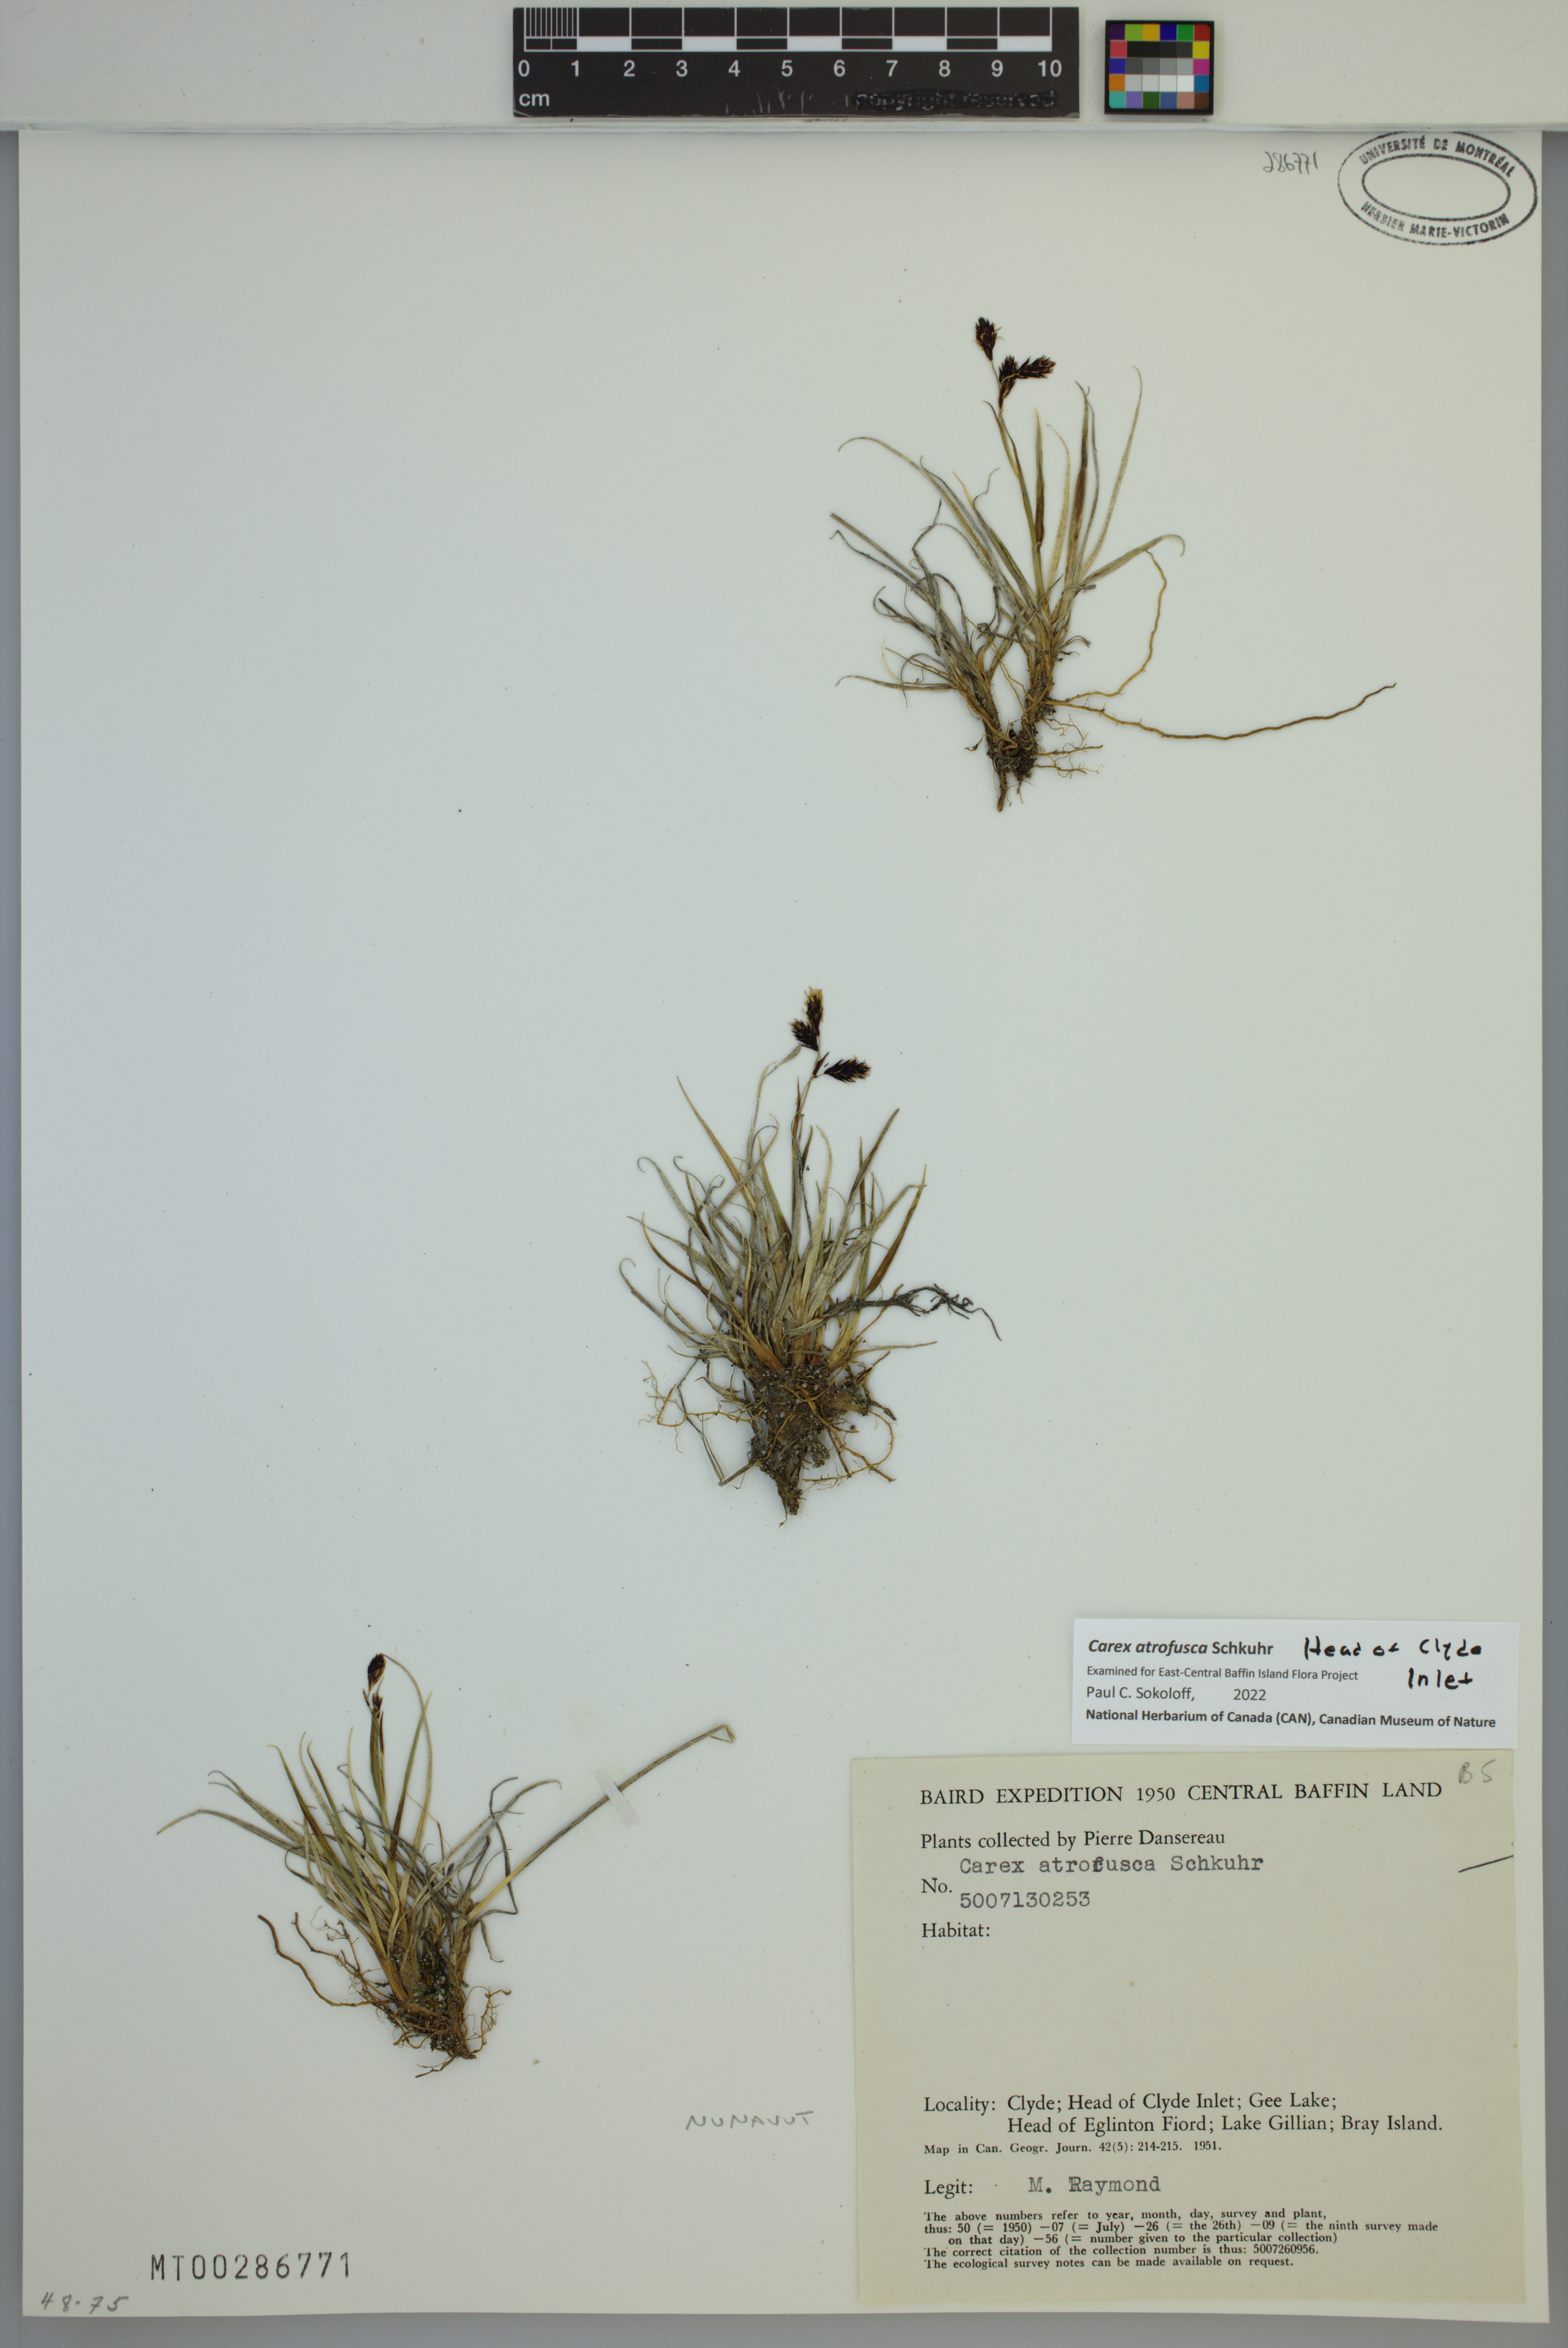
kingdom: Plantae
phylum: Tracheophyta
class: Liliopsida
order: Poales
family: Cyperaceae
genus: Carex
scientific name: Carex atrofusca
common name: Scorched alpine-sedge
